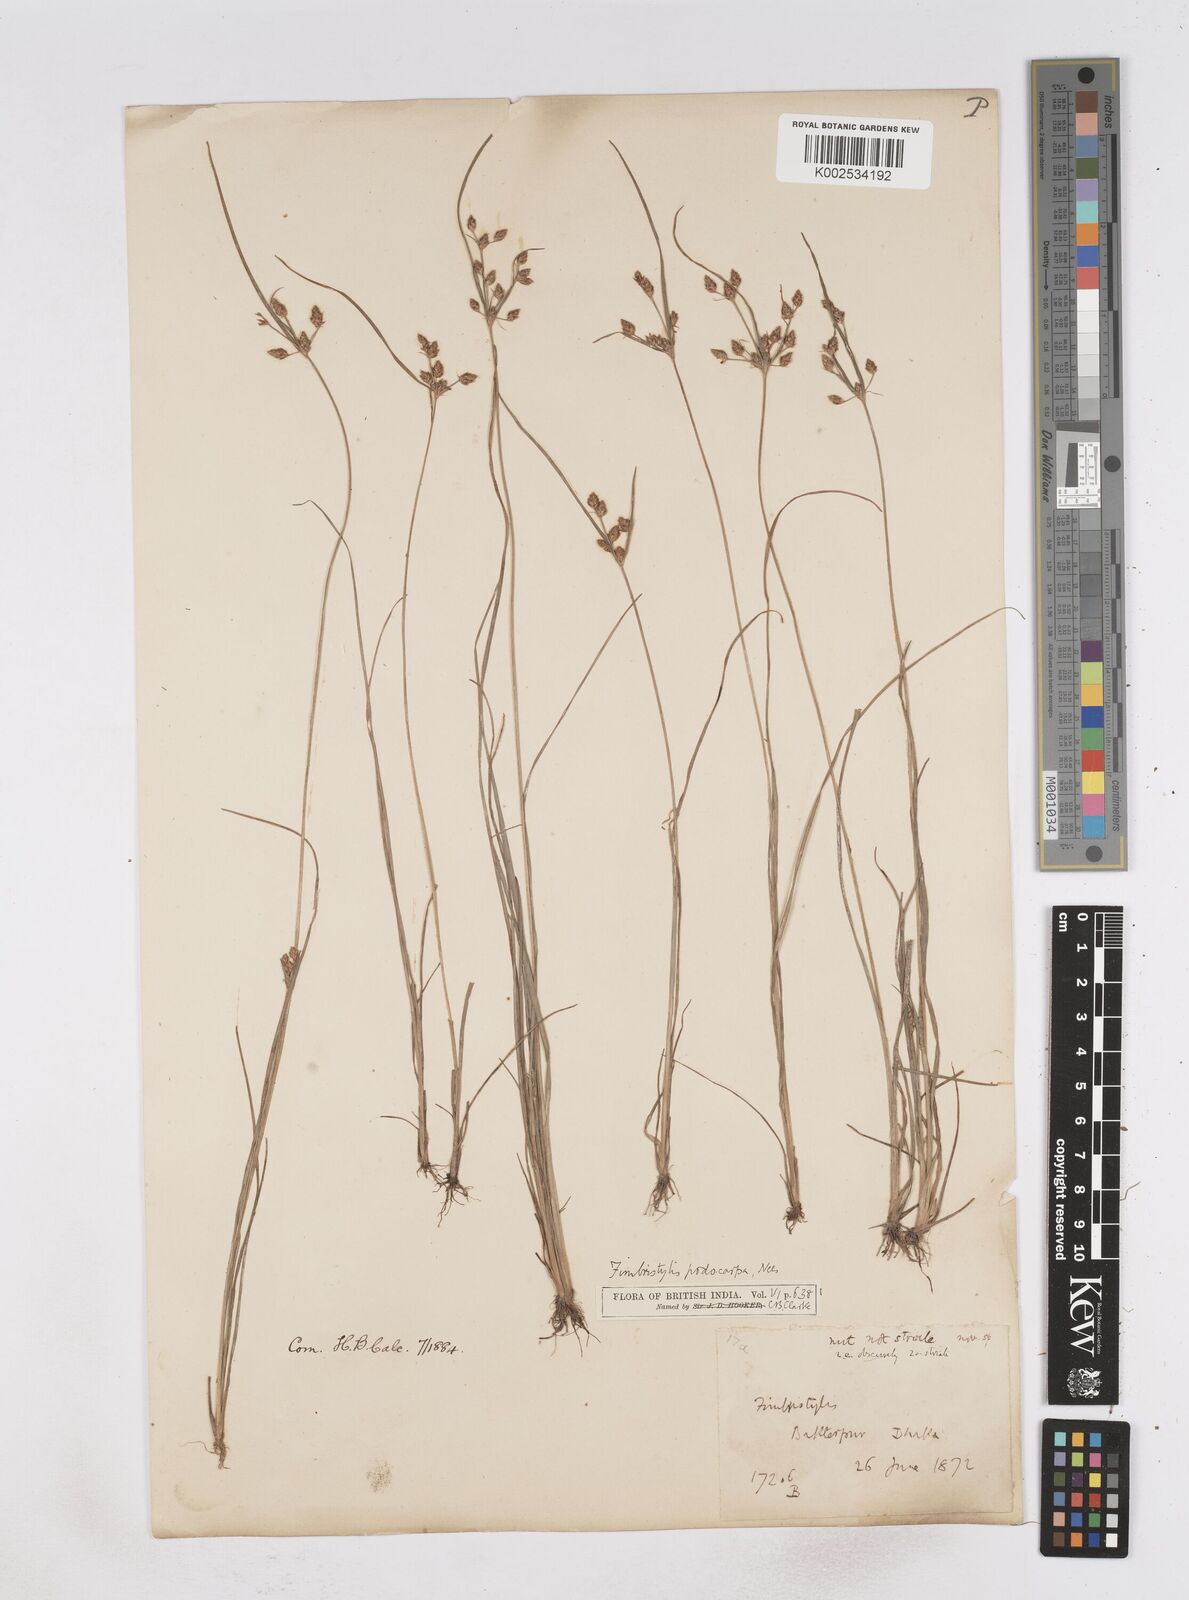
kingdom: Plantae
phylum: Tracheophyta
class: Liliopsida
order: Poales
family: Cyperaceae
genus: Fimbristylis
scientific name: Fimbristylis dichotoma
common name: Forked fimbry
